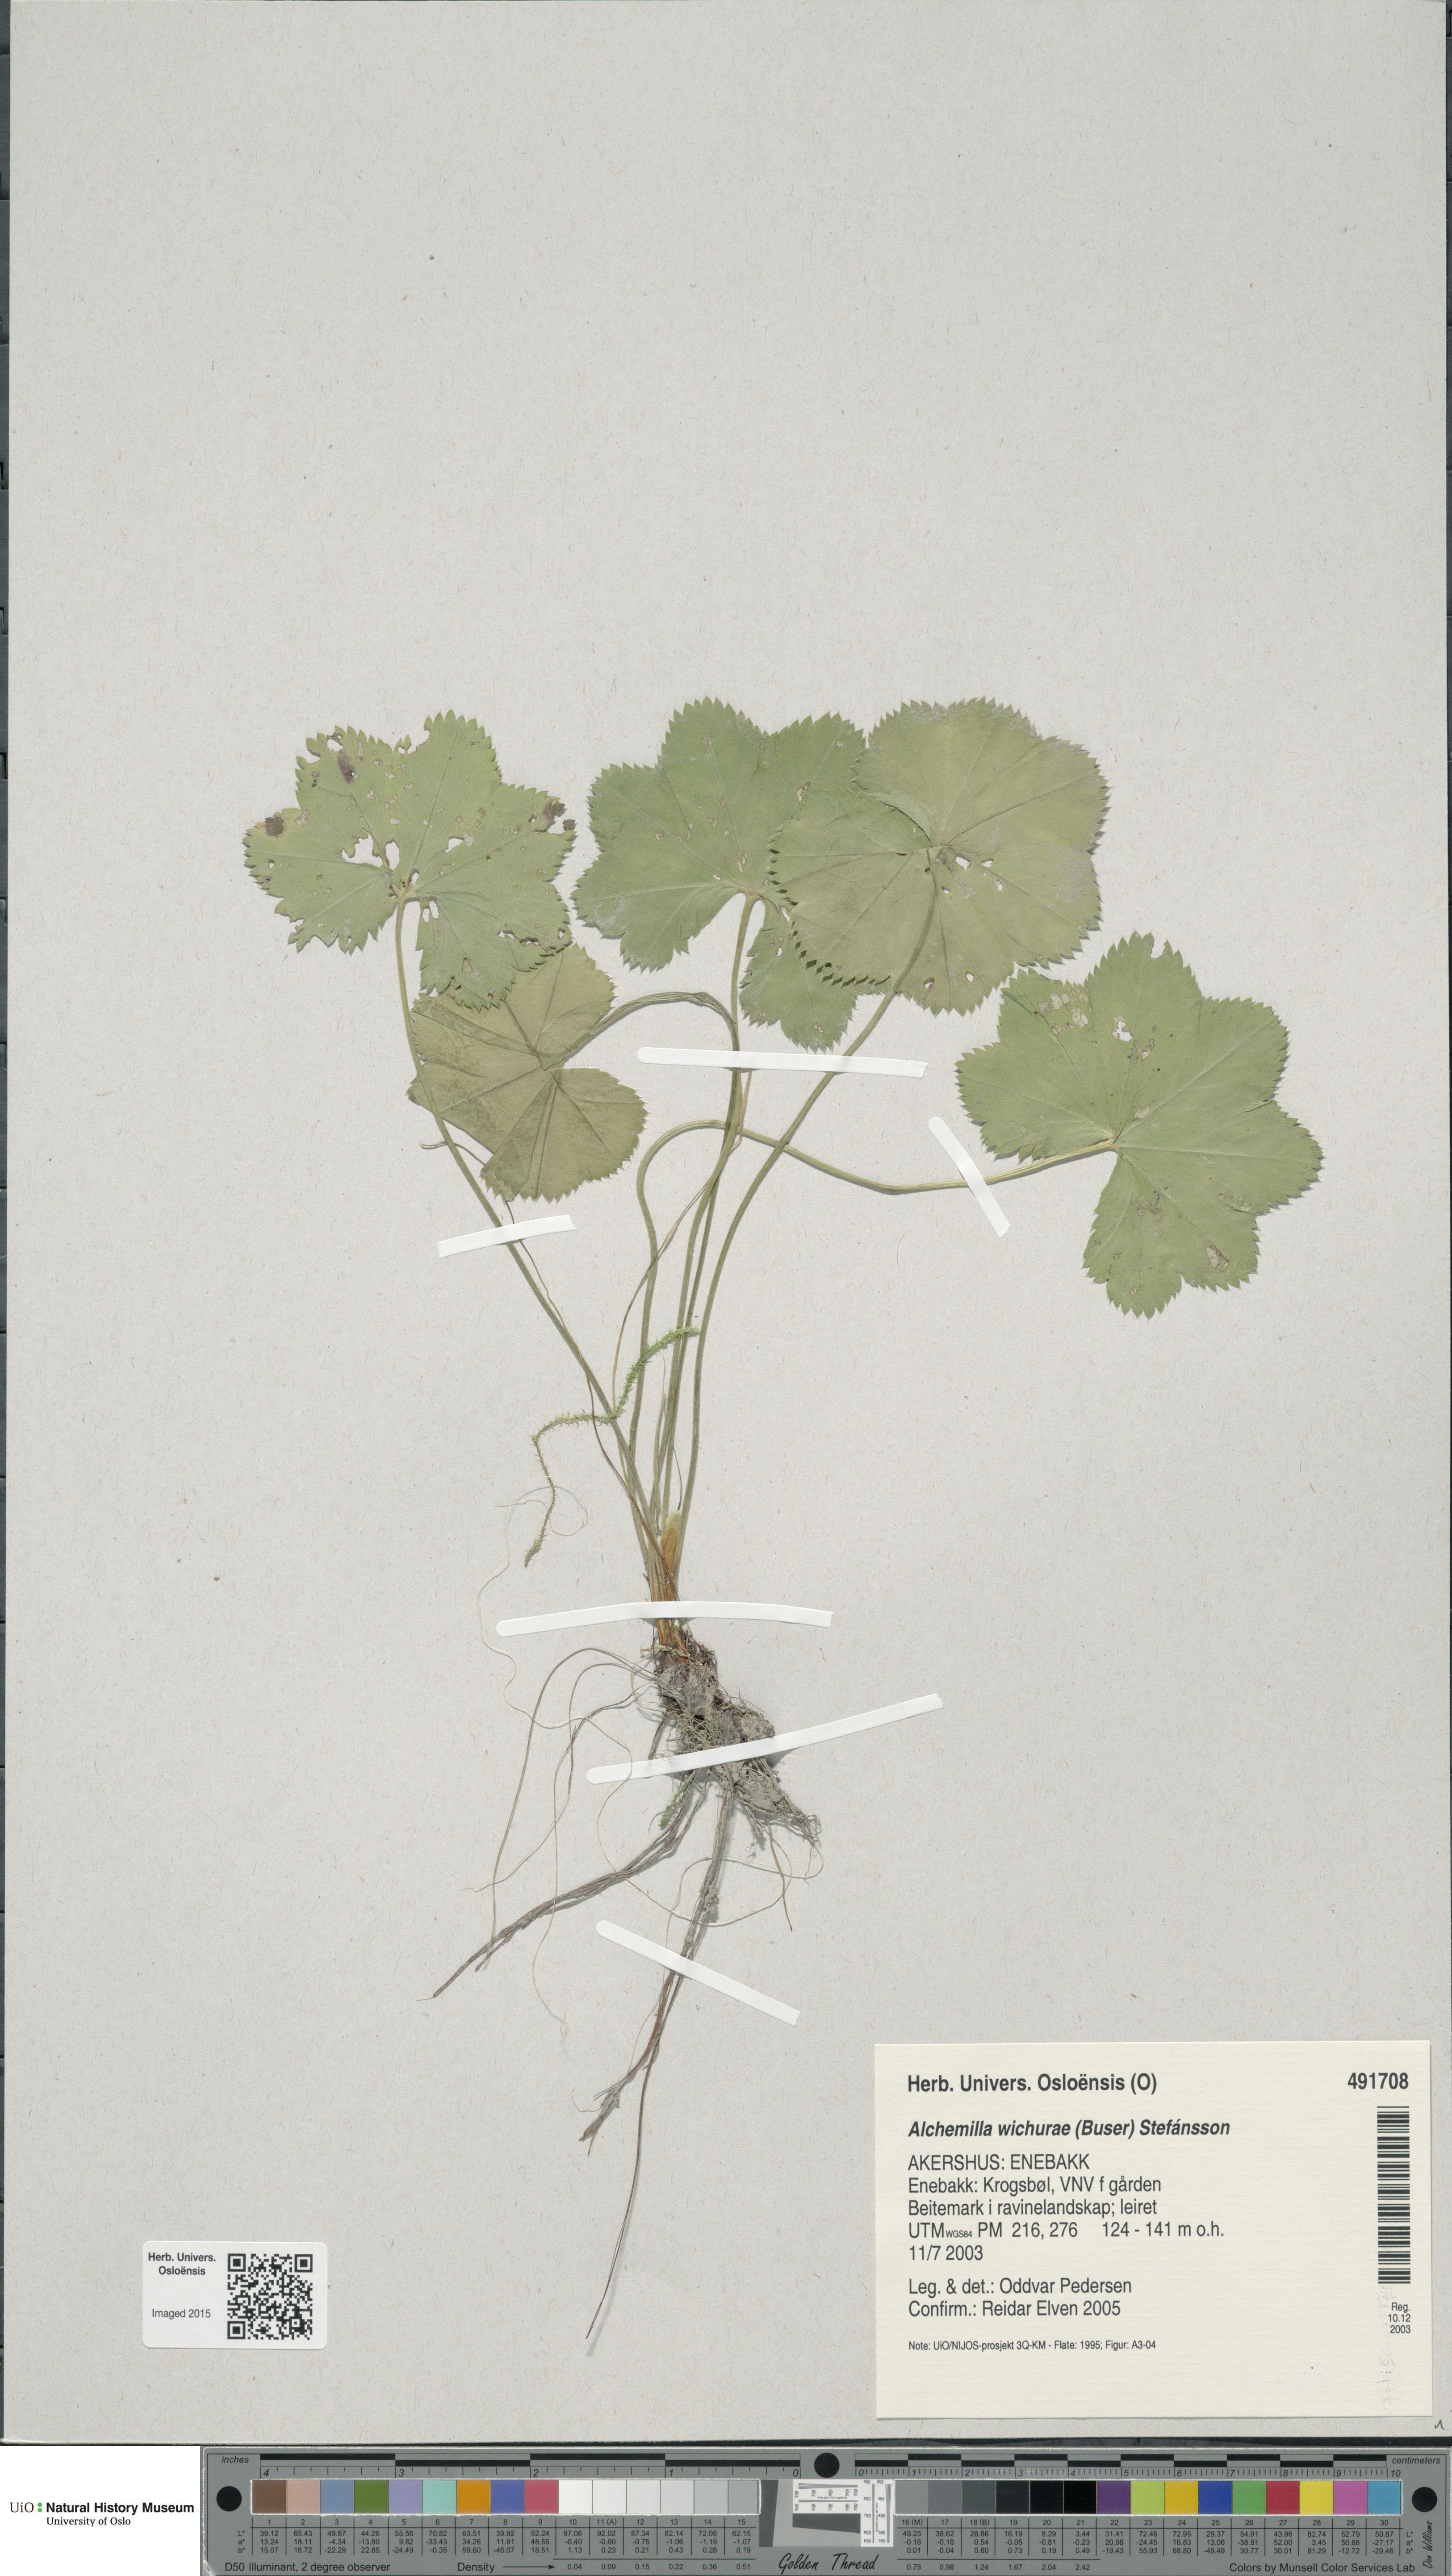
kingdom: Plantae
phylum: Tracheophyta
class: Magnoliopsida
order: Rosales
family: Rosaceae
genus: Alchemilla
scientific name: Alchemilla wichurae
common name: Rock lady's mantle
